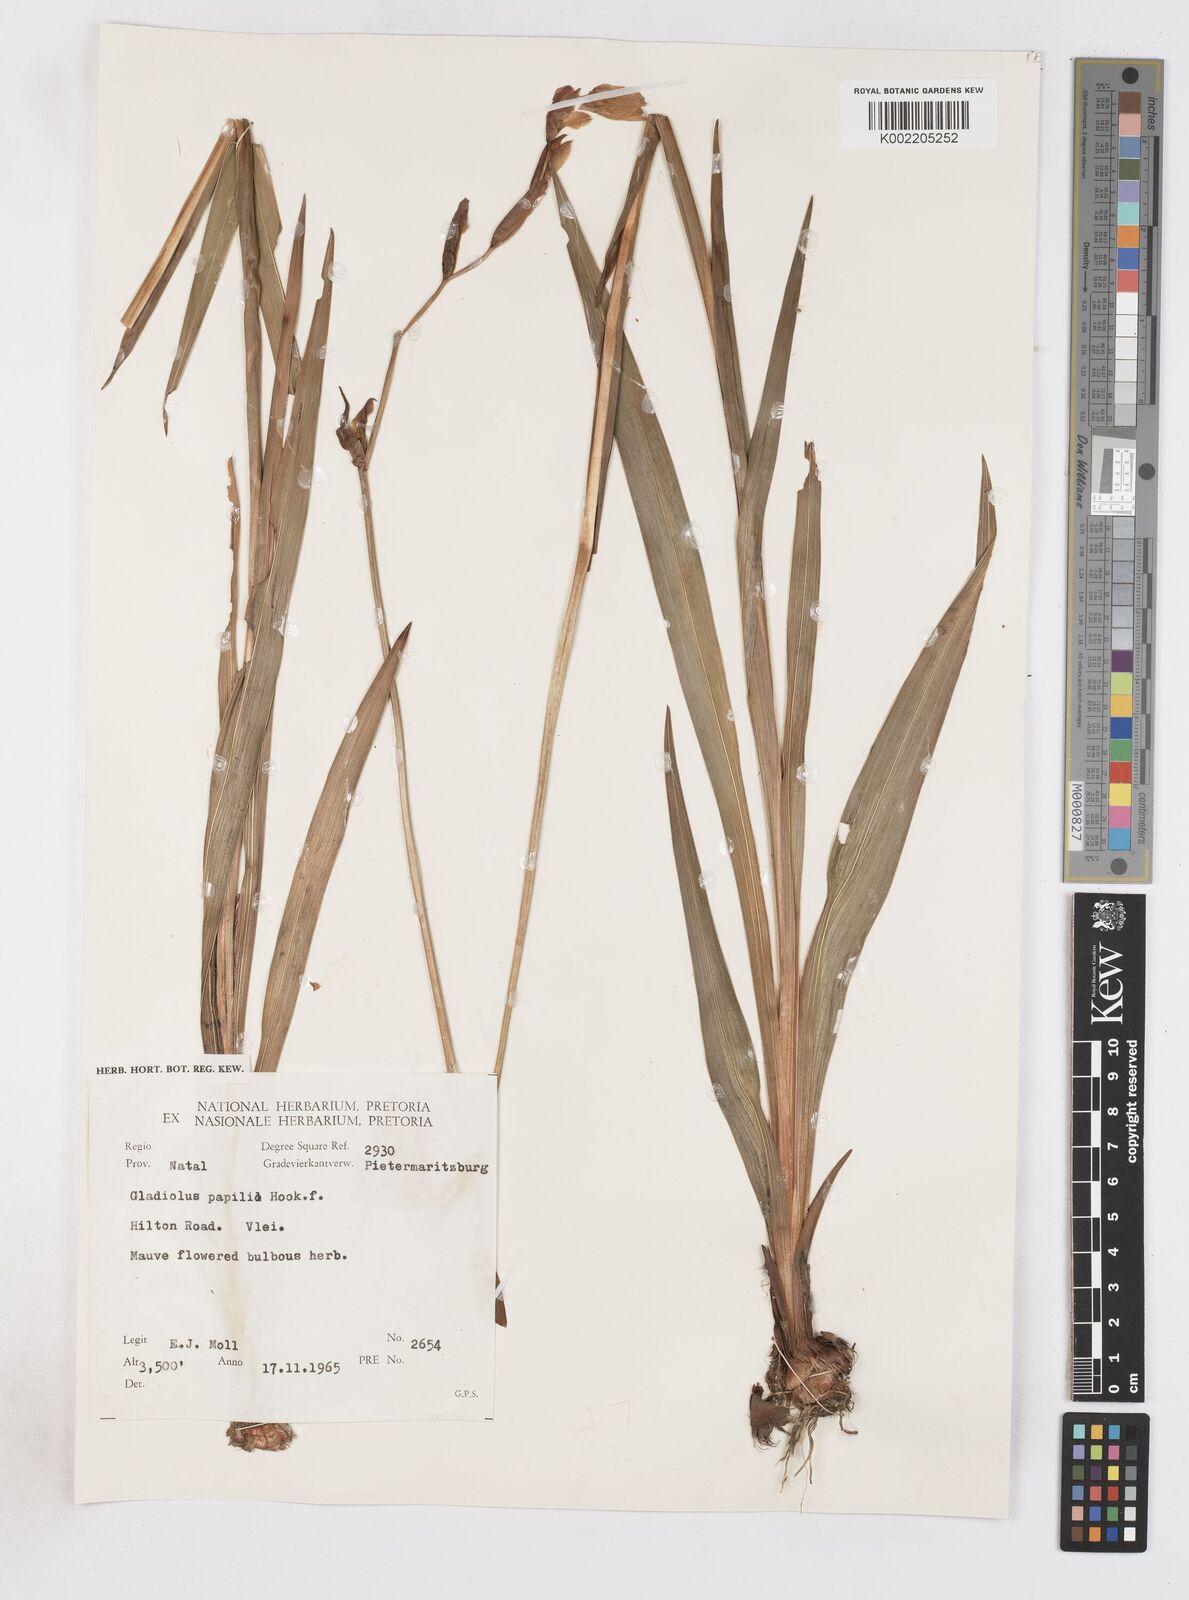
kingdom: Plantae
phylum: Tracheophyta
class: Liliopsida
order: Asparagales
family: Iridaceae
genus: Gladiolus
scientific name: Gladiolus papilio
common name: Goldblotch gladiolus
